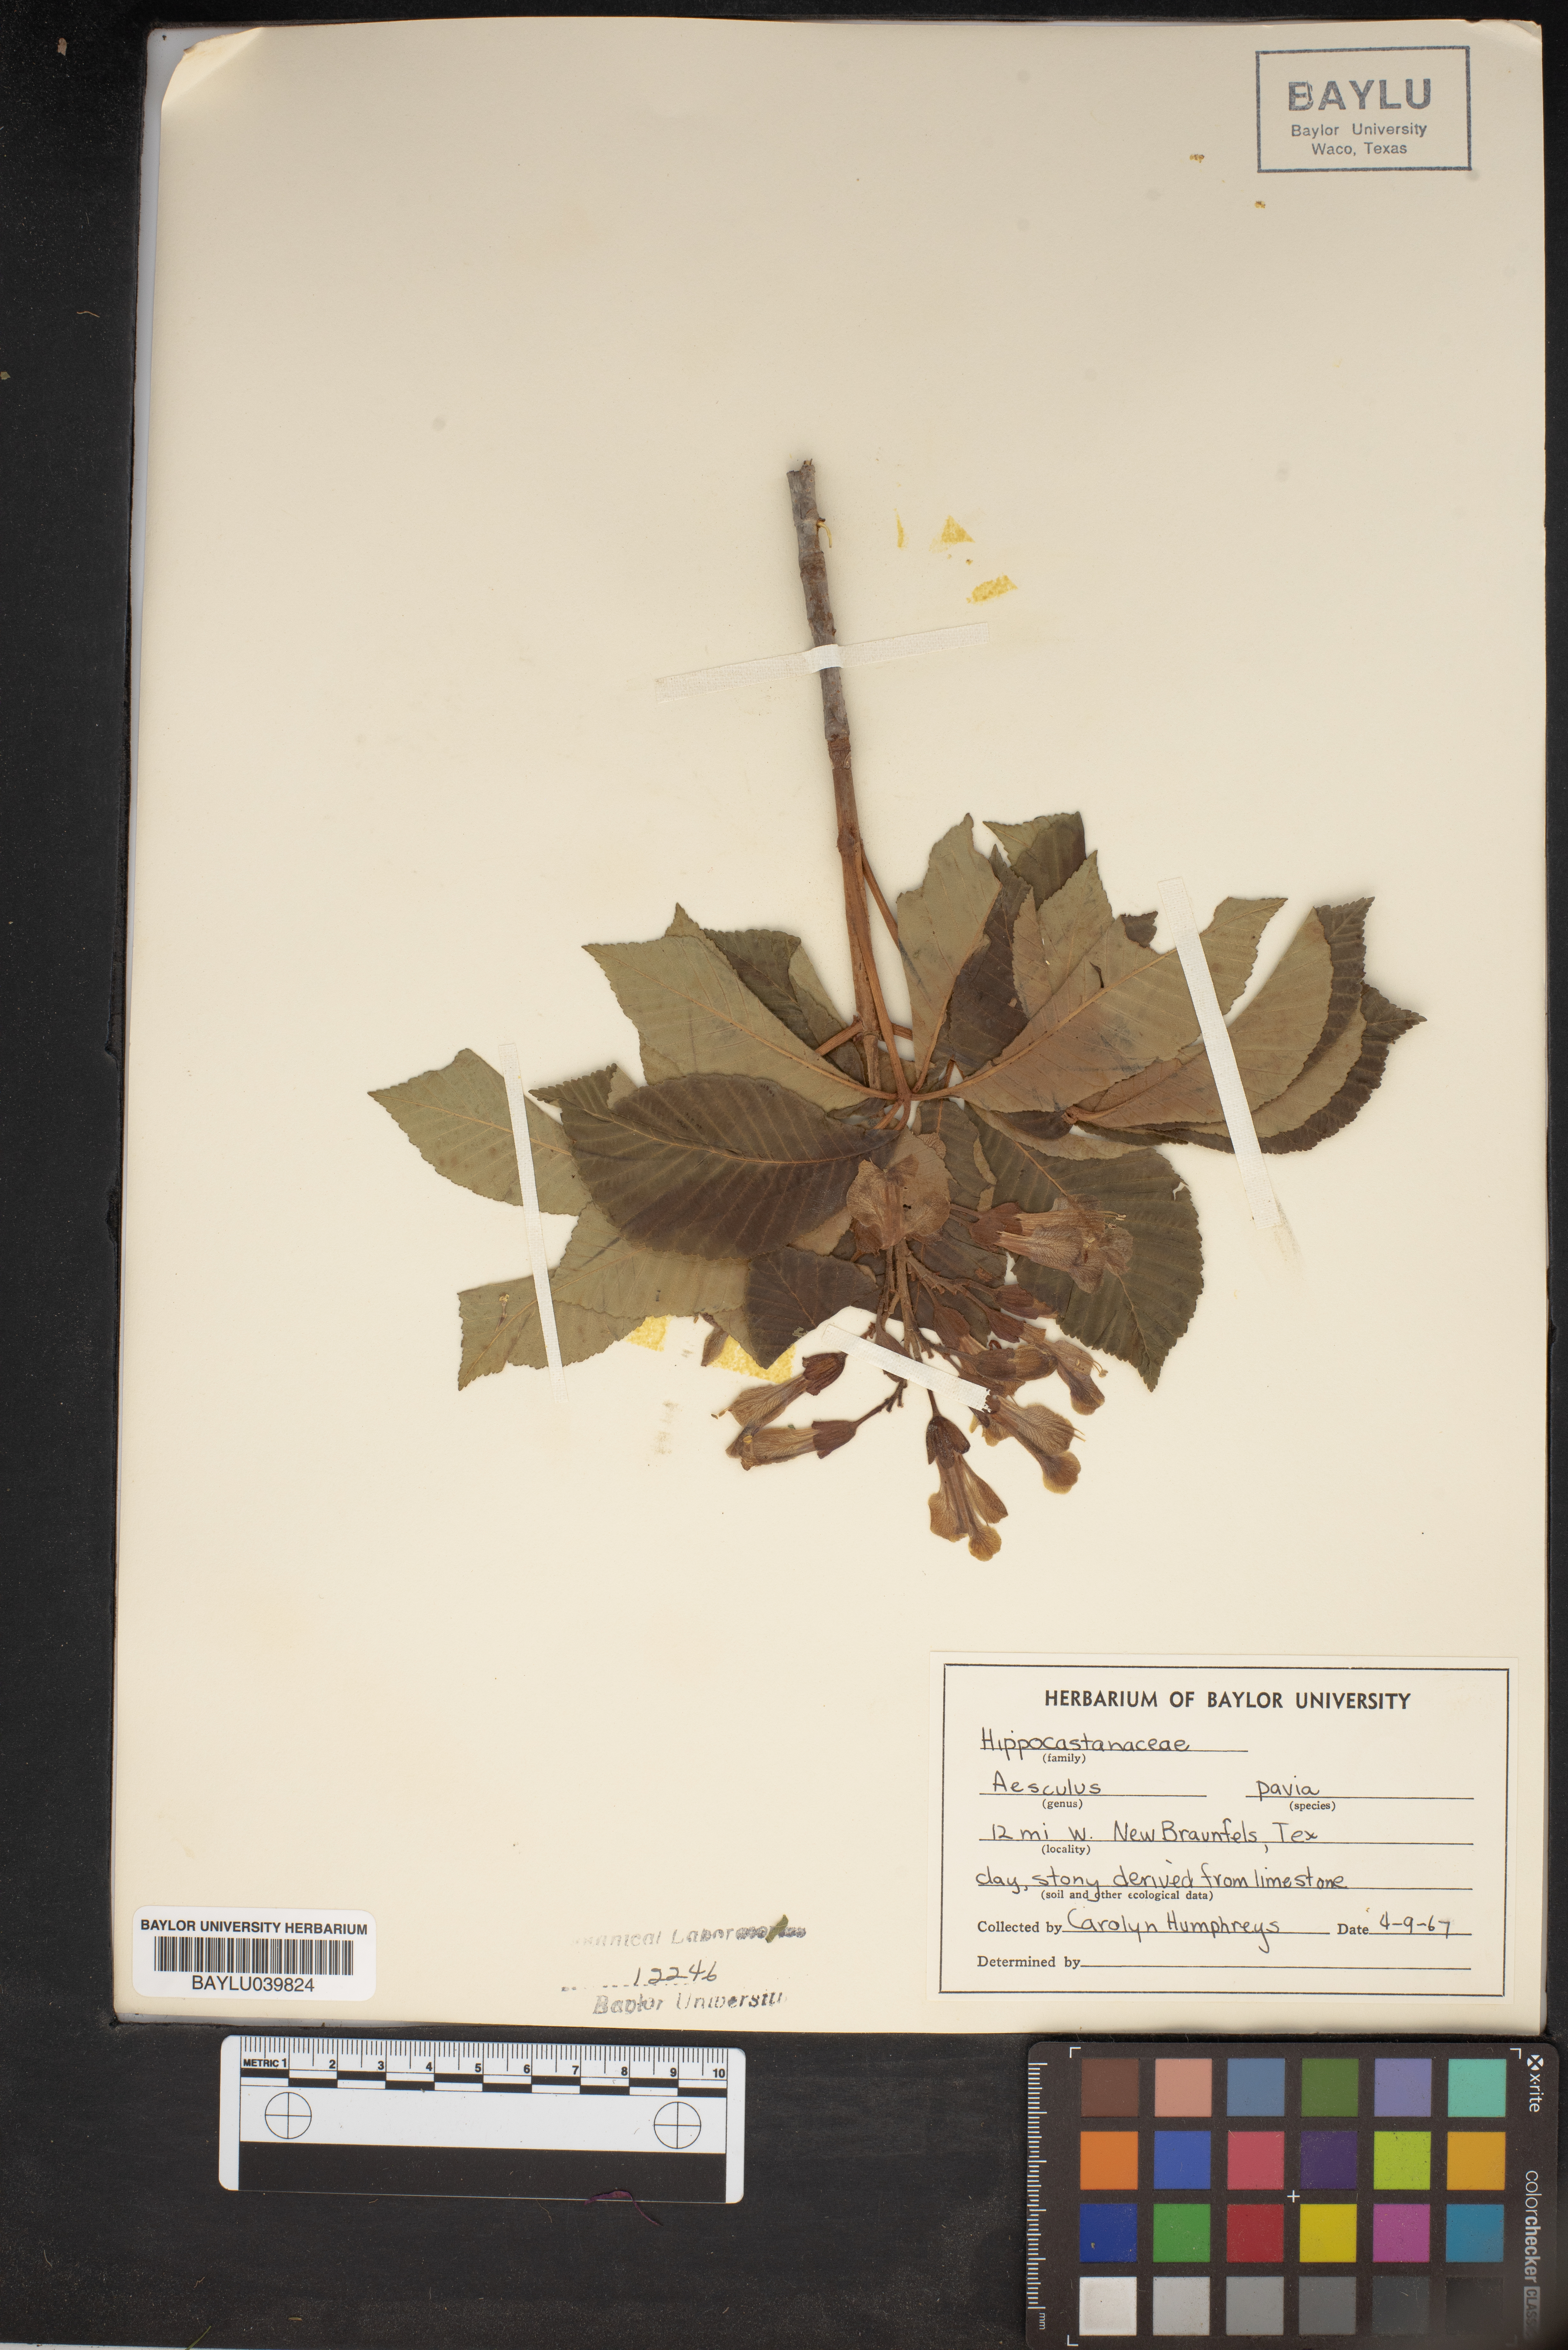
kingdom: Plantae
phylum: Tracheophyta
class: Magnoliopsida
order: Sapindales
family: Sapindaceae
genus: Aesculus
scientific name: Aesculus pavia
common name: Red buckeye
